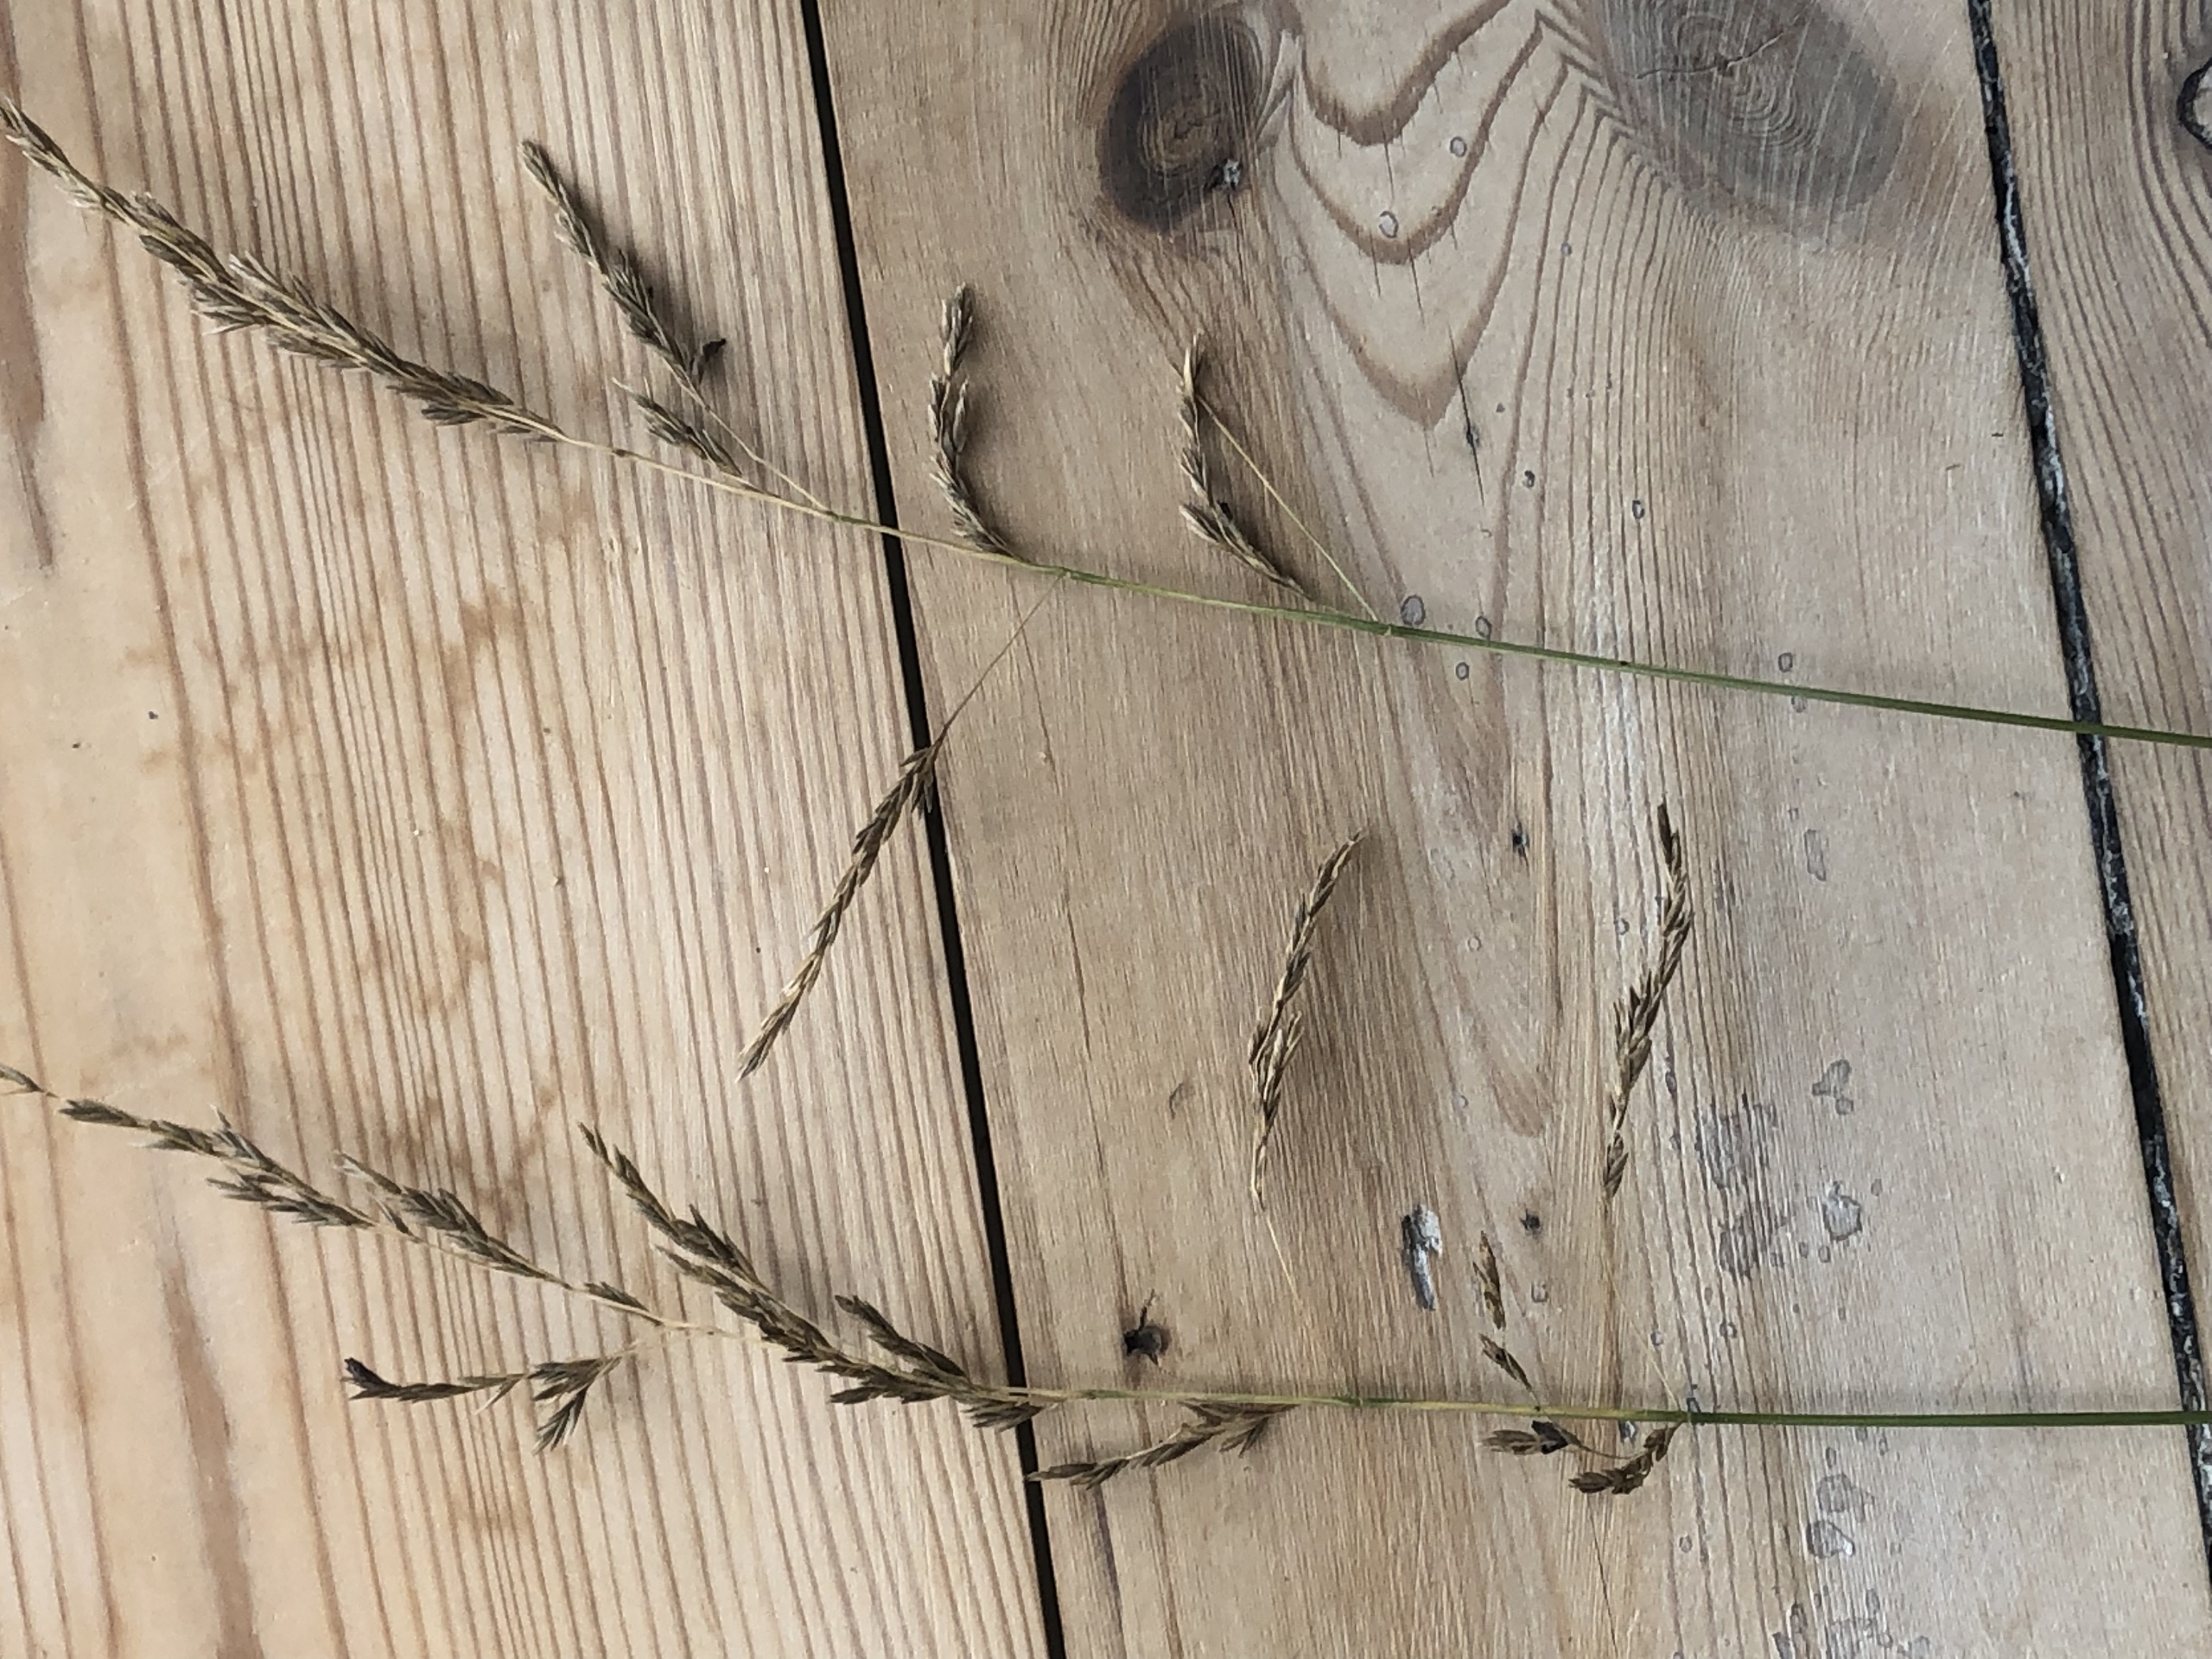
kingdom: Plantae
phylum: Tracheophyta
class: Liliopsida
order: Poales
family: Poaceae
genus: Festuca
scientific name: Festuca
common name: Svingelslægten
